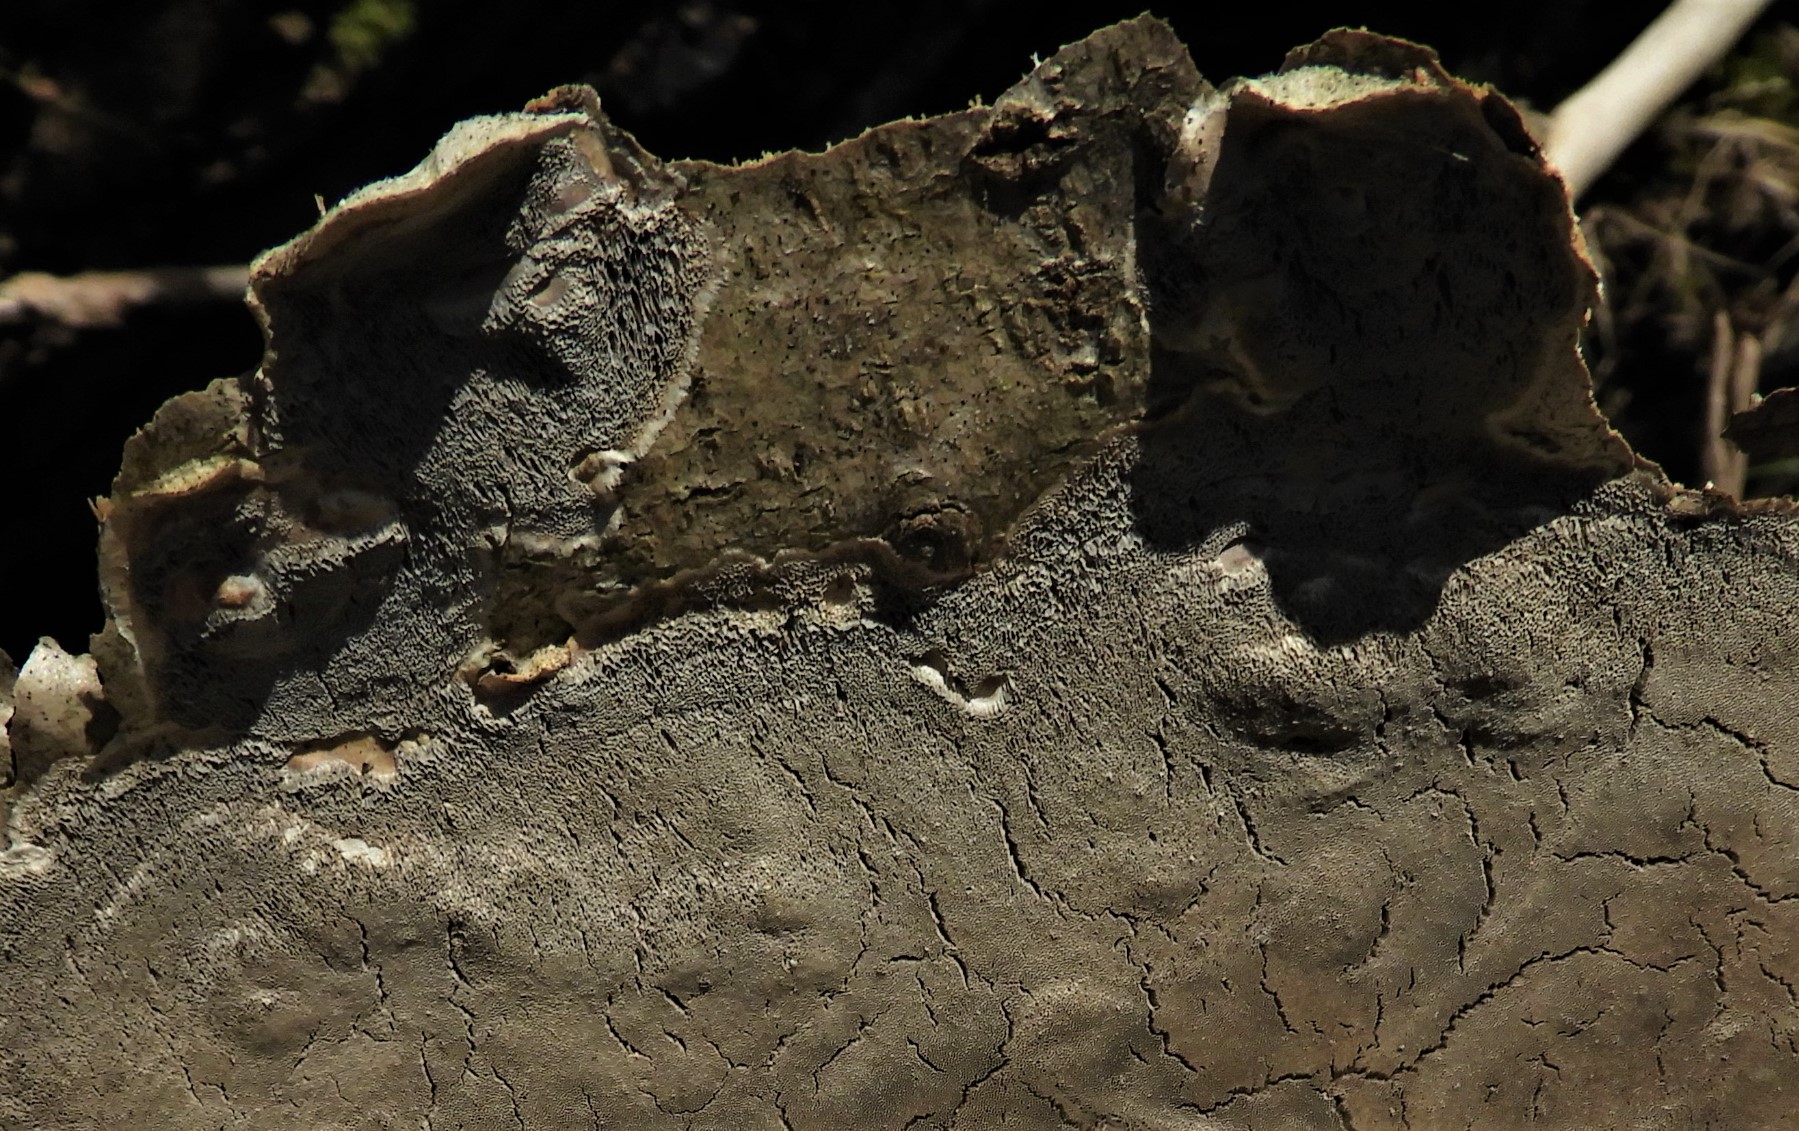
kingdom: Fungi
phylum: Basidiomycota
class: Agaricomycetes
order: Polyporales
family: Phanerochaetaceae
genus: Bjerkandera
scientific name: Bjerkandera adusta
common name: sveden sodporesvamp
